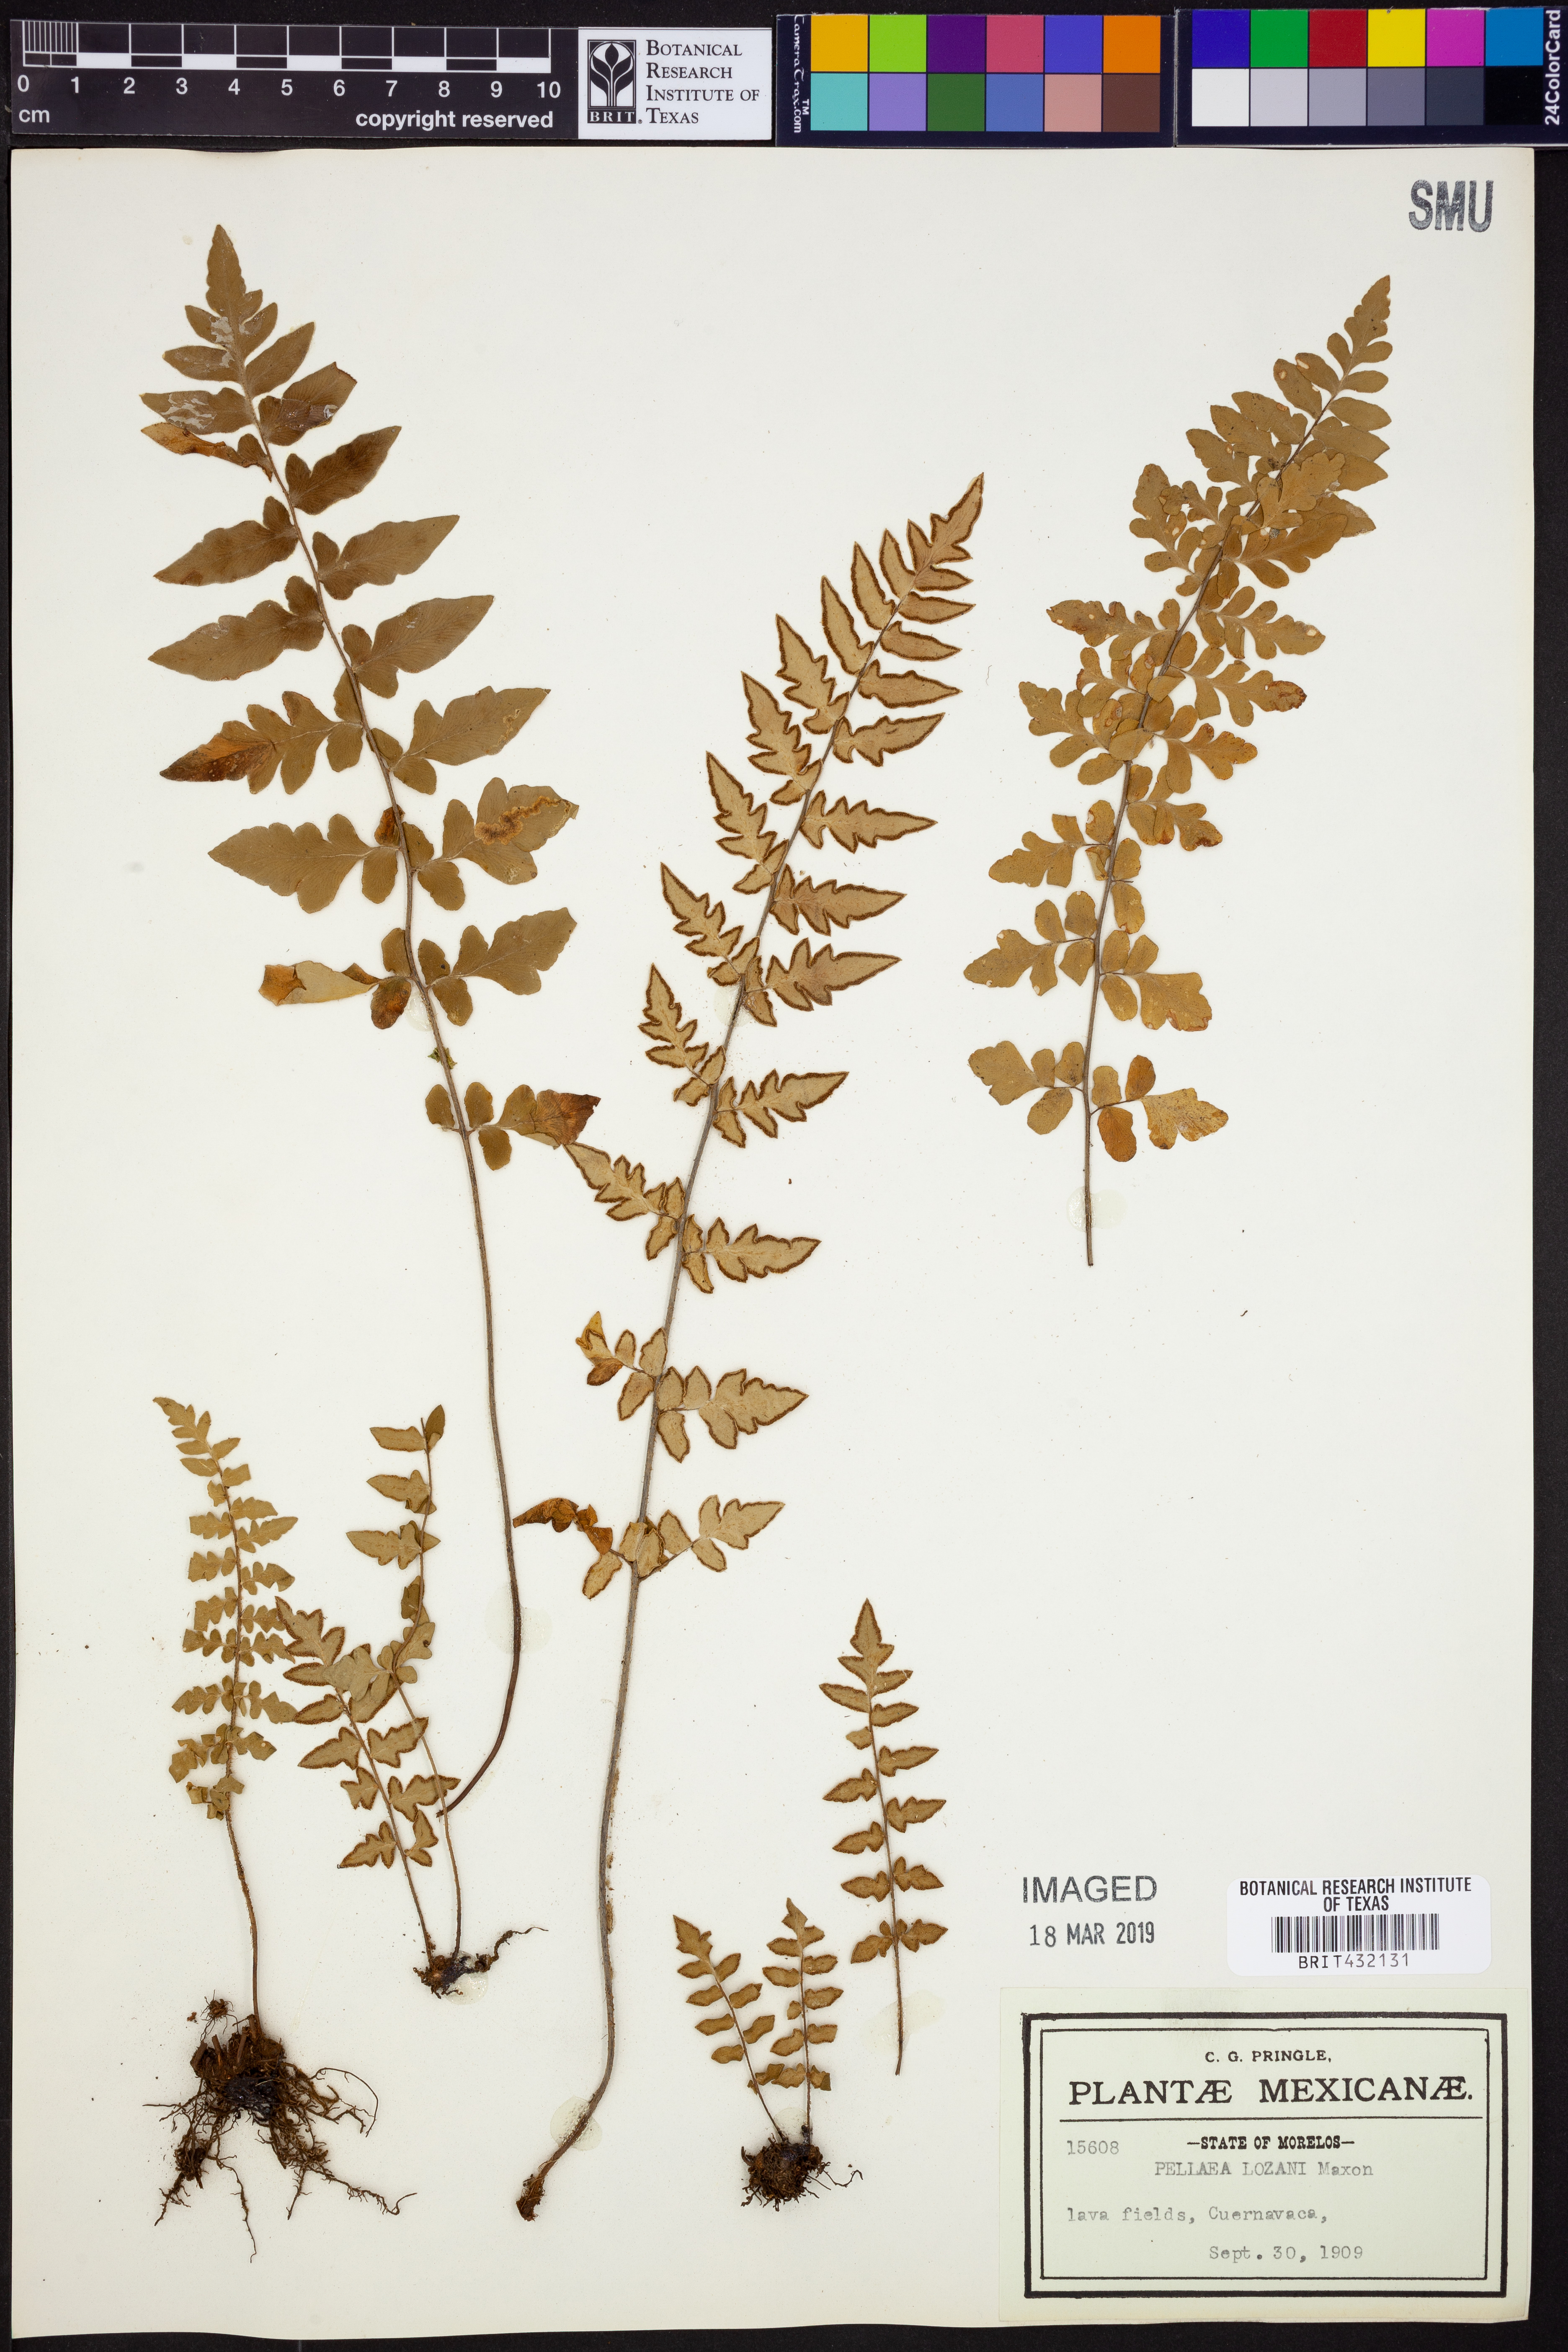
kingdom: Plantae
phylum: Tracheophyta
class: Polypodiopsida
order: Polypodiales
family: Pteridaceae
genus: Cheilanthes
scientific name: Cheilanthes lozanoi
